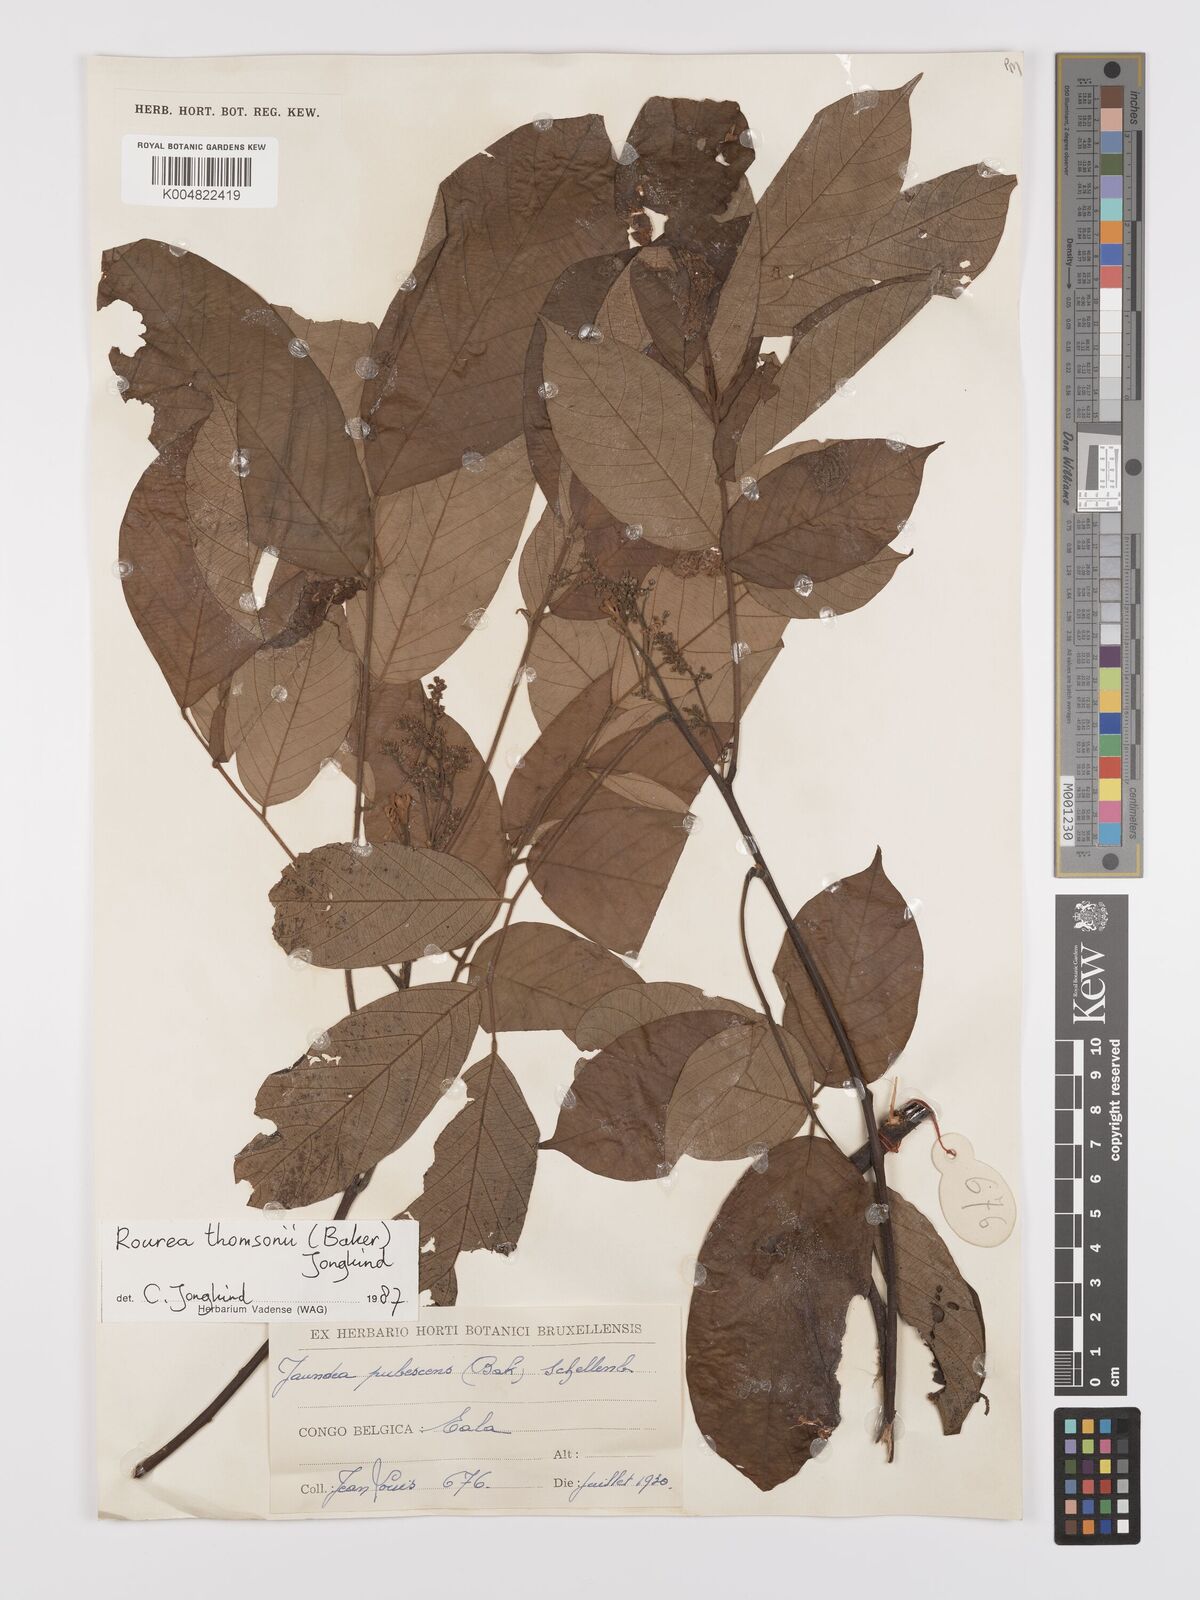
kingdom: Plantae
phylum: Tracheophyta
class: Magnoliopsida
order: Oxalidales
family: Connaraceae
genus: Rourea
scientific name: Rourea pubescens
